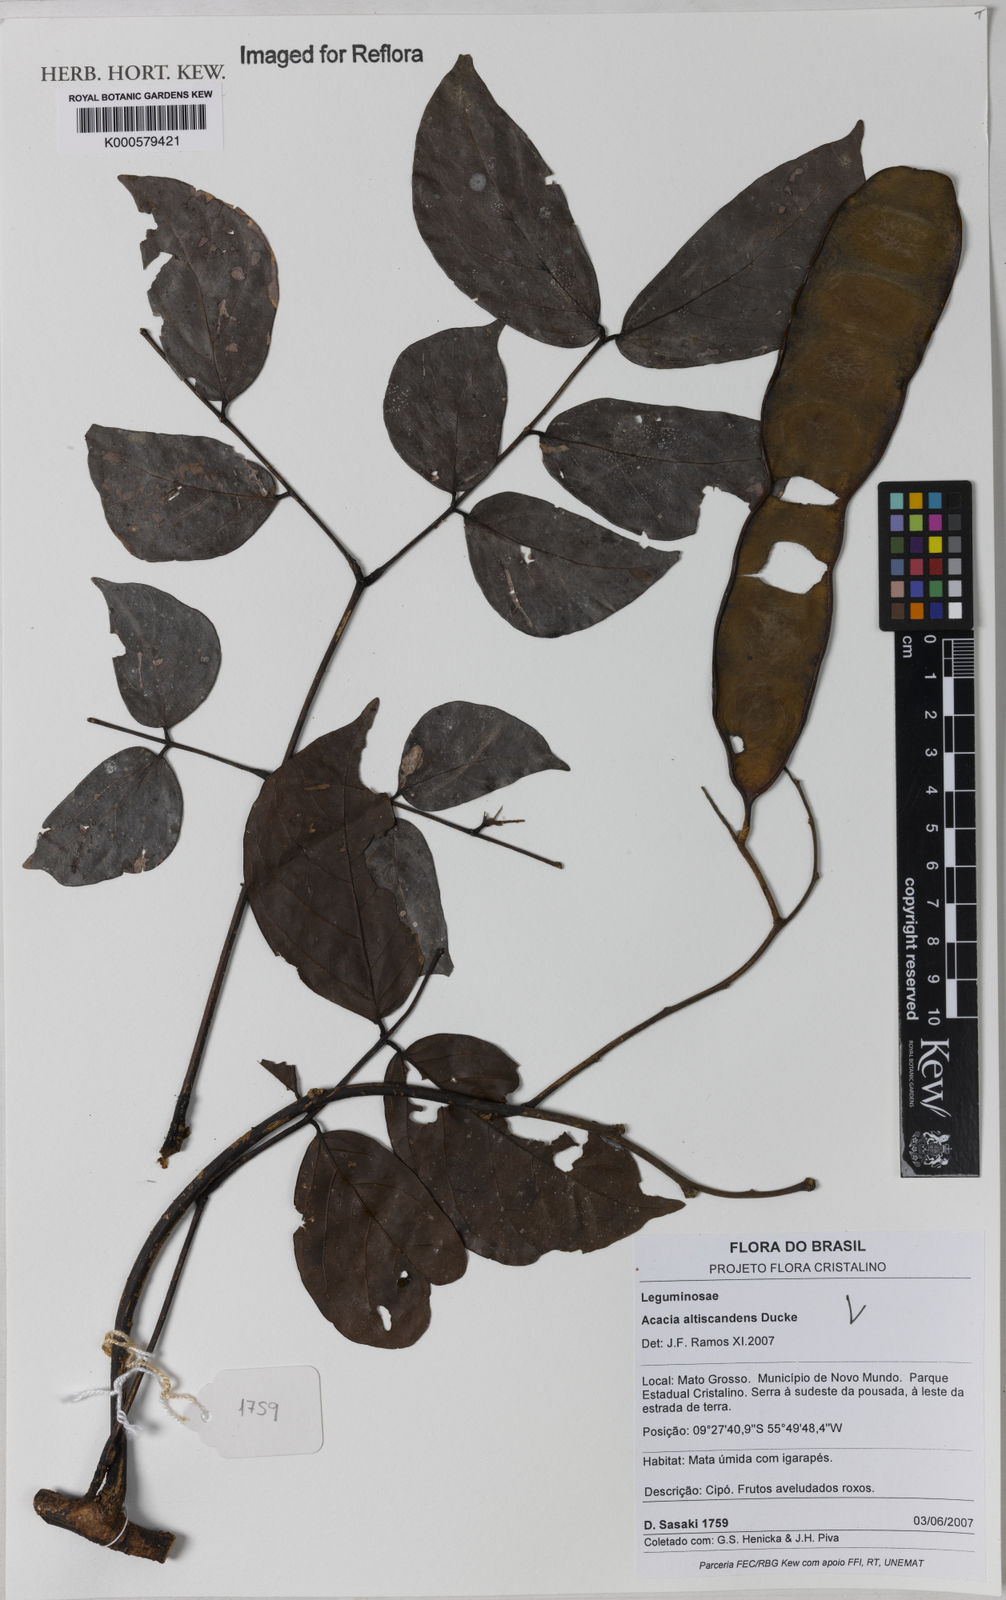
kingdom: Plantae
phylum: Tracheophyta
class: Magnoliopsida
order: Fabales
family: Fabaceae
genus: Senegalia
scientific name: Senegalia altiscandens
